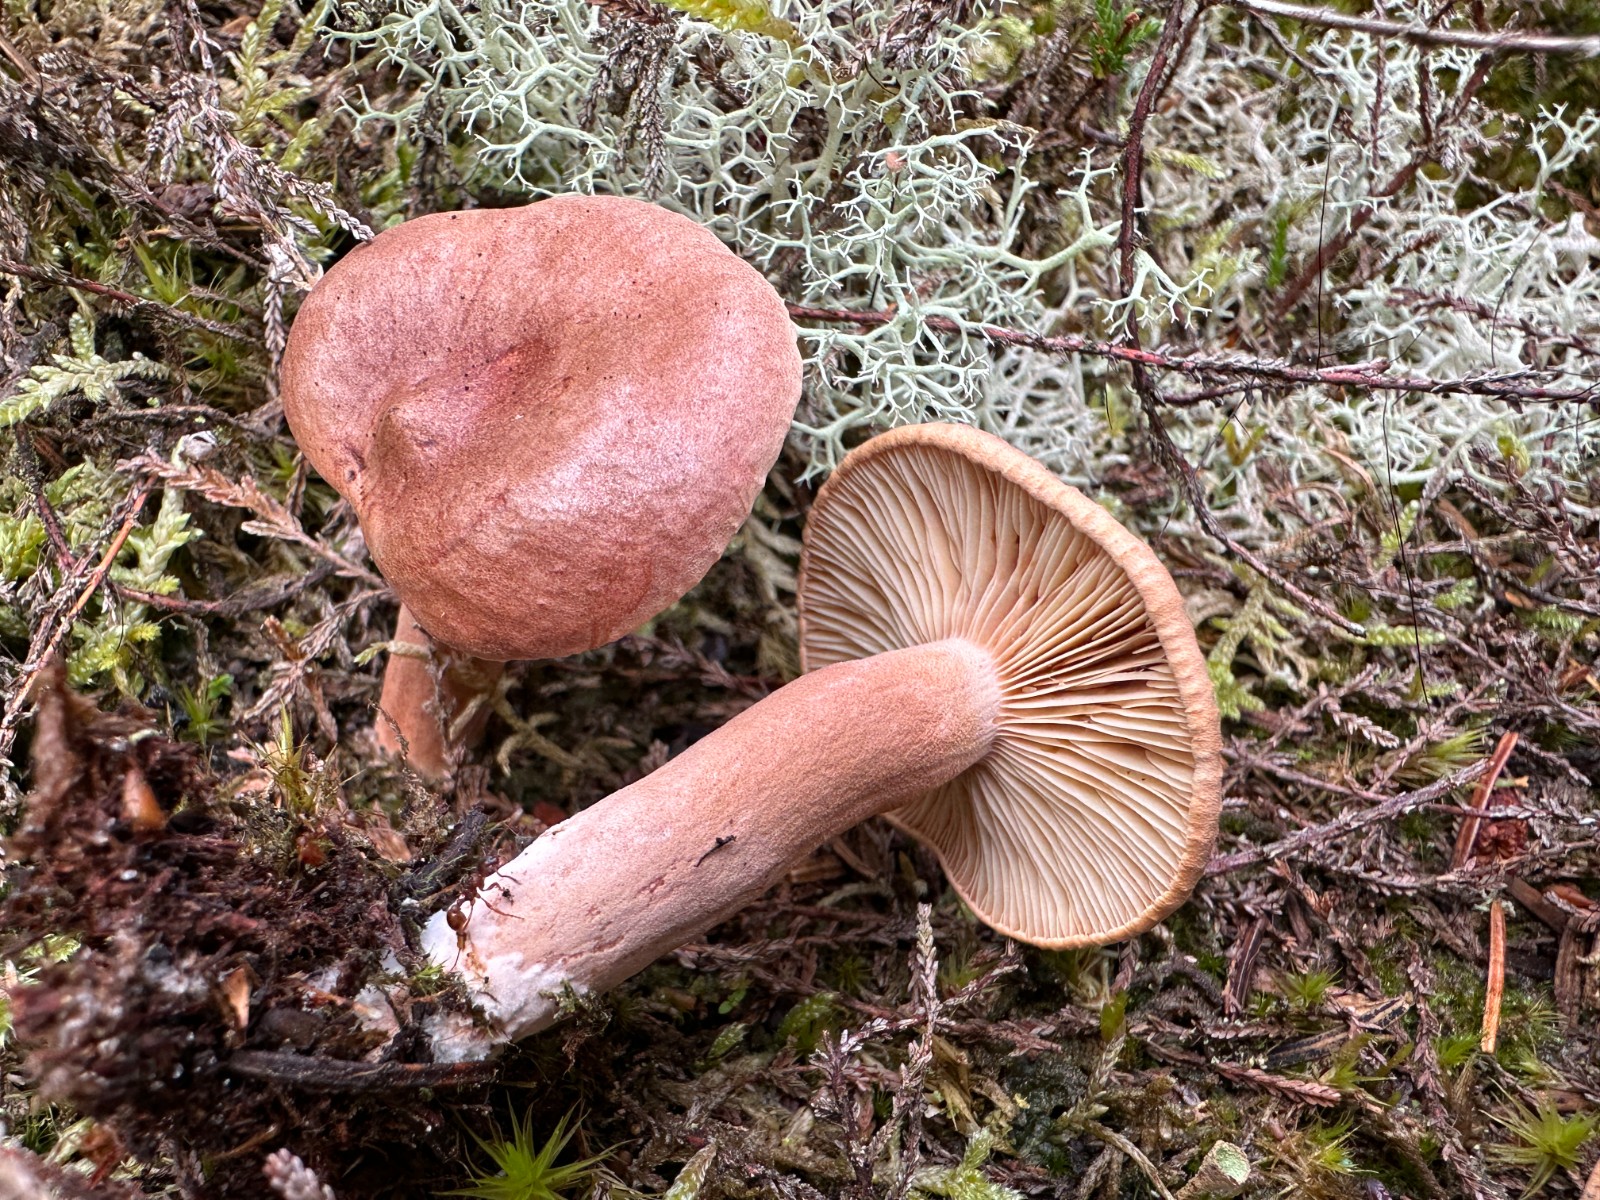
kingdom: Fungi
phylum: Basidiomycota
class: Agaricomycetes
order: Russulales
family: Russulaceae
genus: Lactarius
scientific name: Lactarius rufus
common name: rødbrun mælkehat
